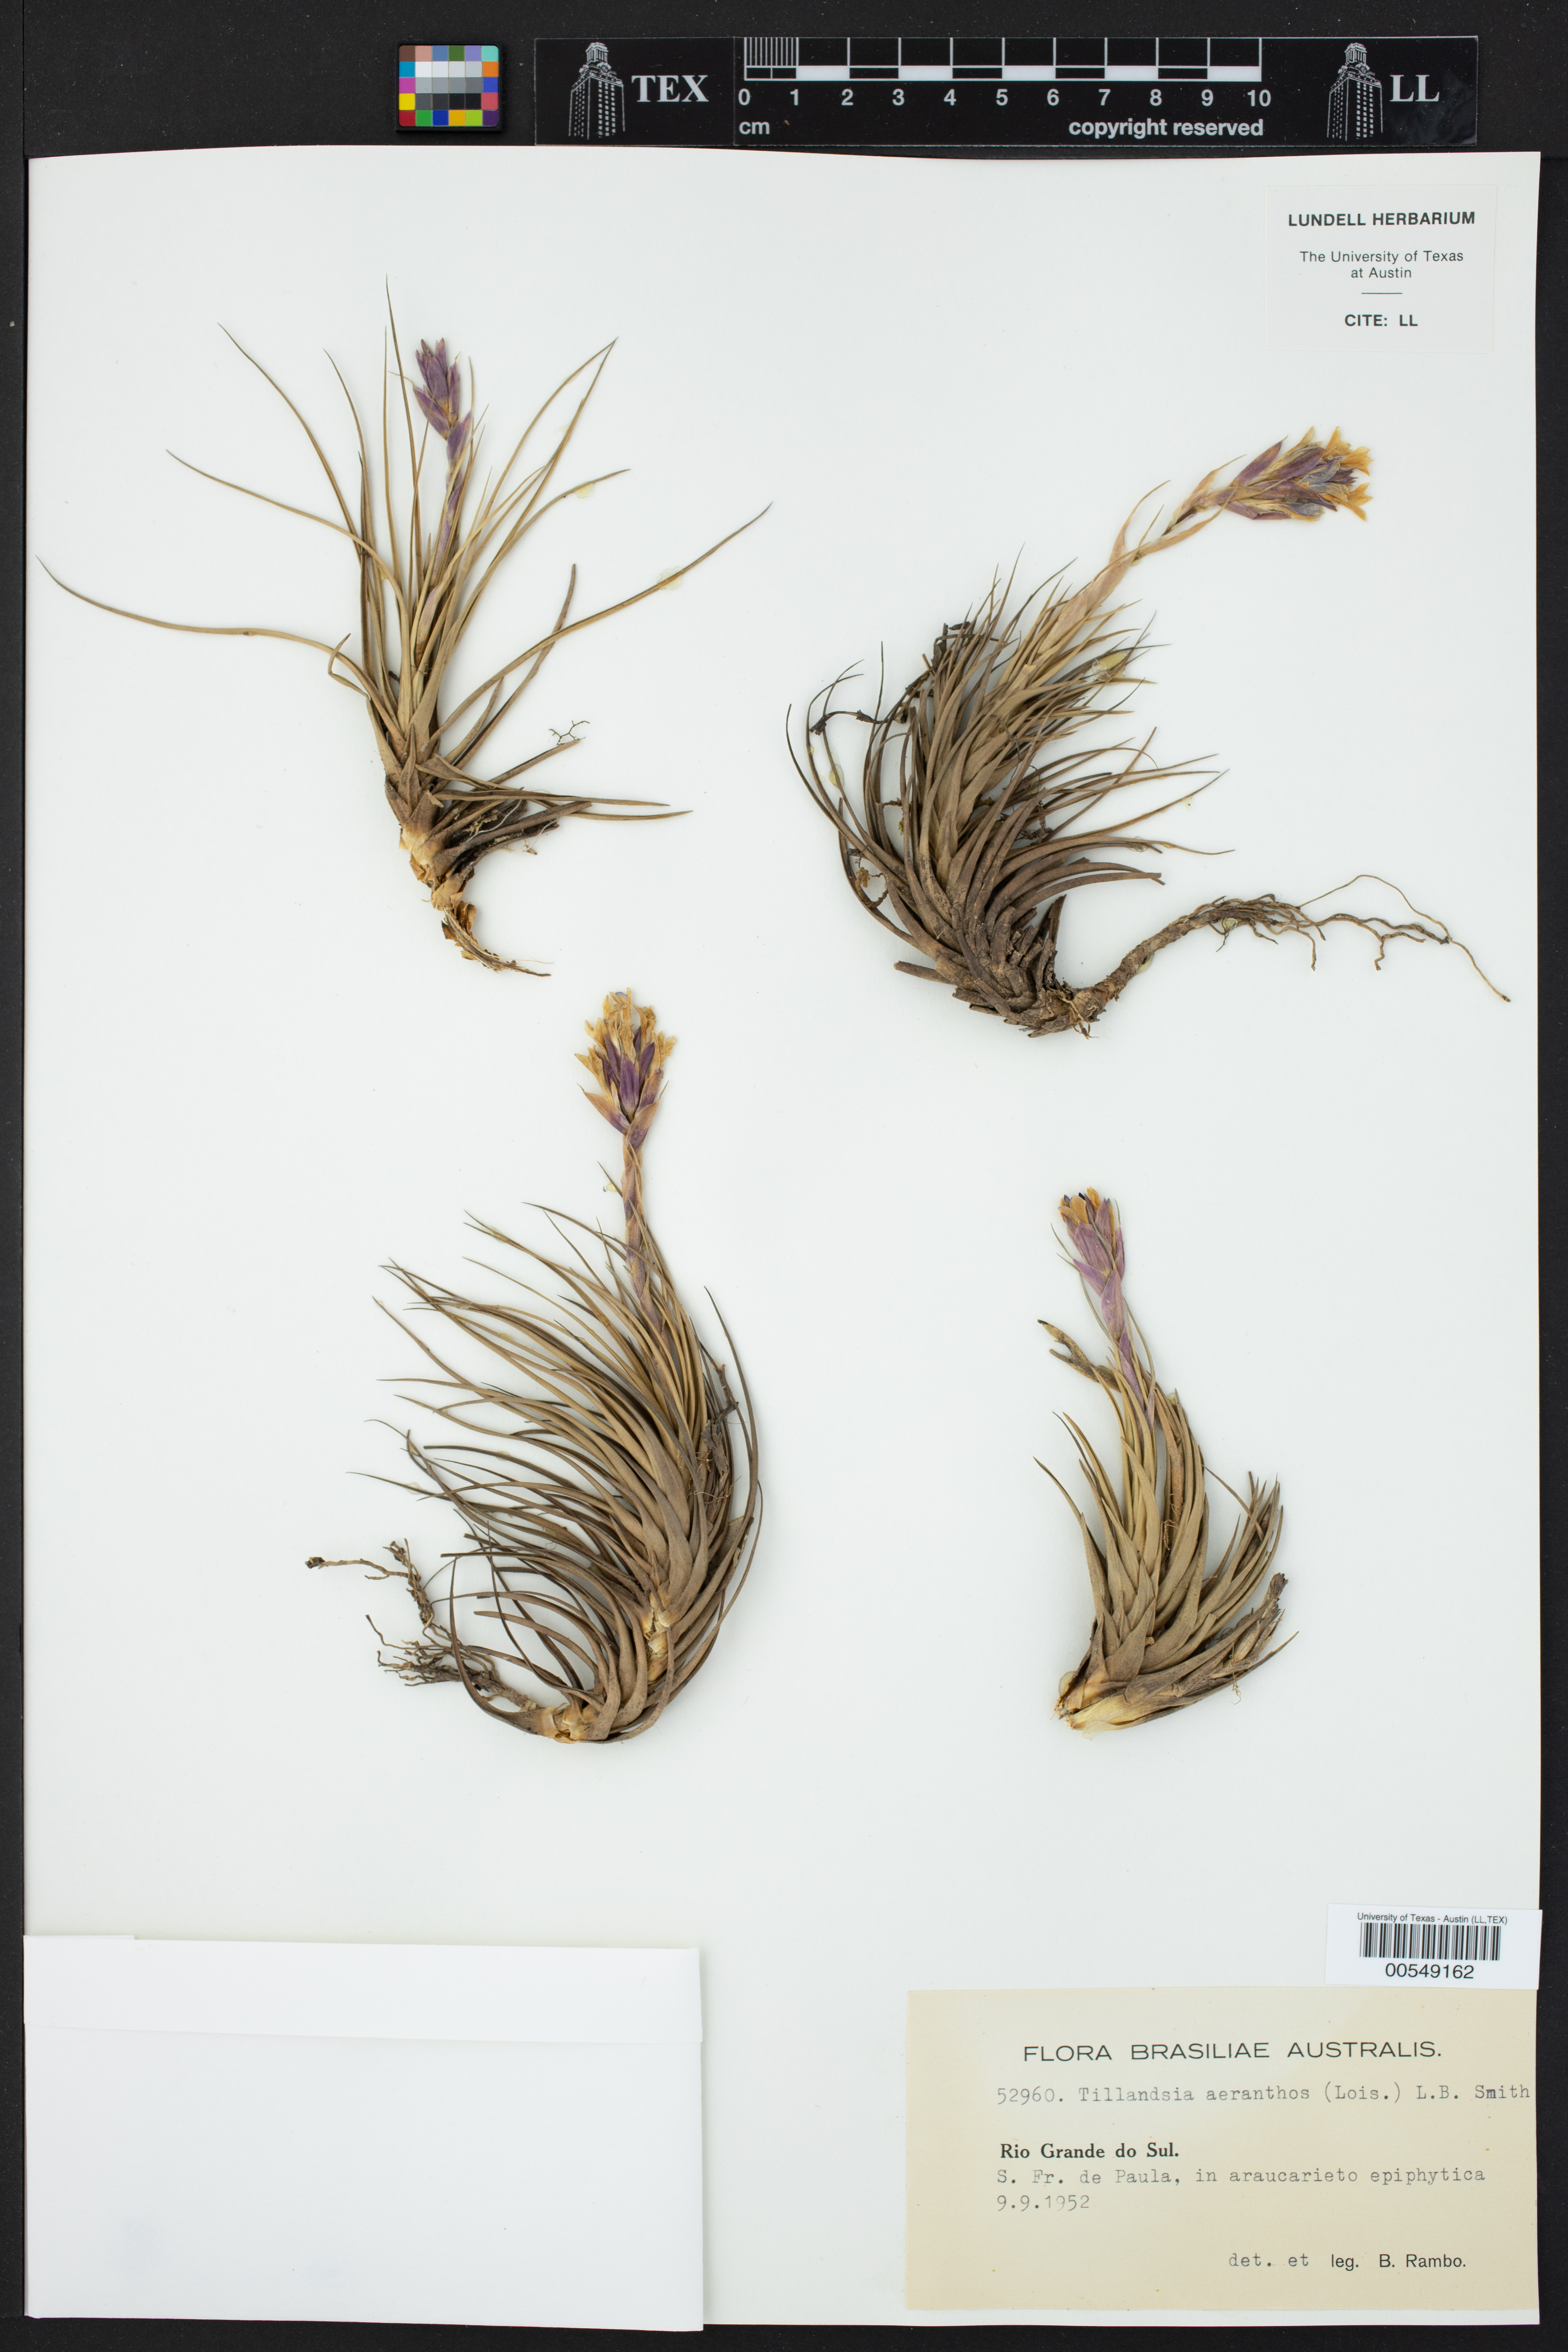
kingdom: Plantae
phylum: Tracheophyta
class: Liliopsida
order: Poales
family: Bromeliaceae
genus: Tillandsia
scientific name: Tillandsia aeranthos
